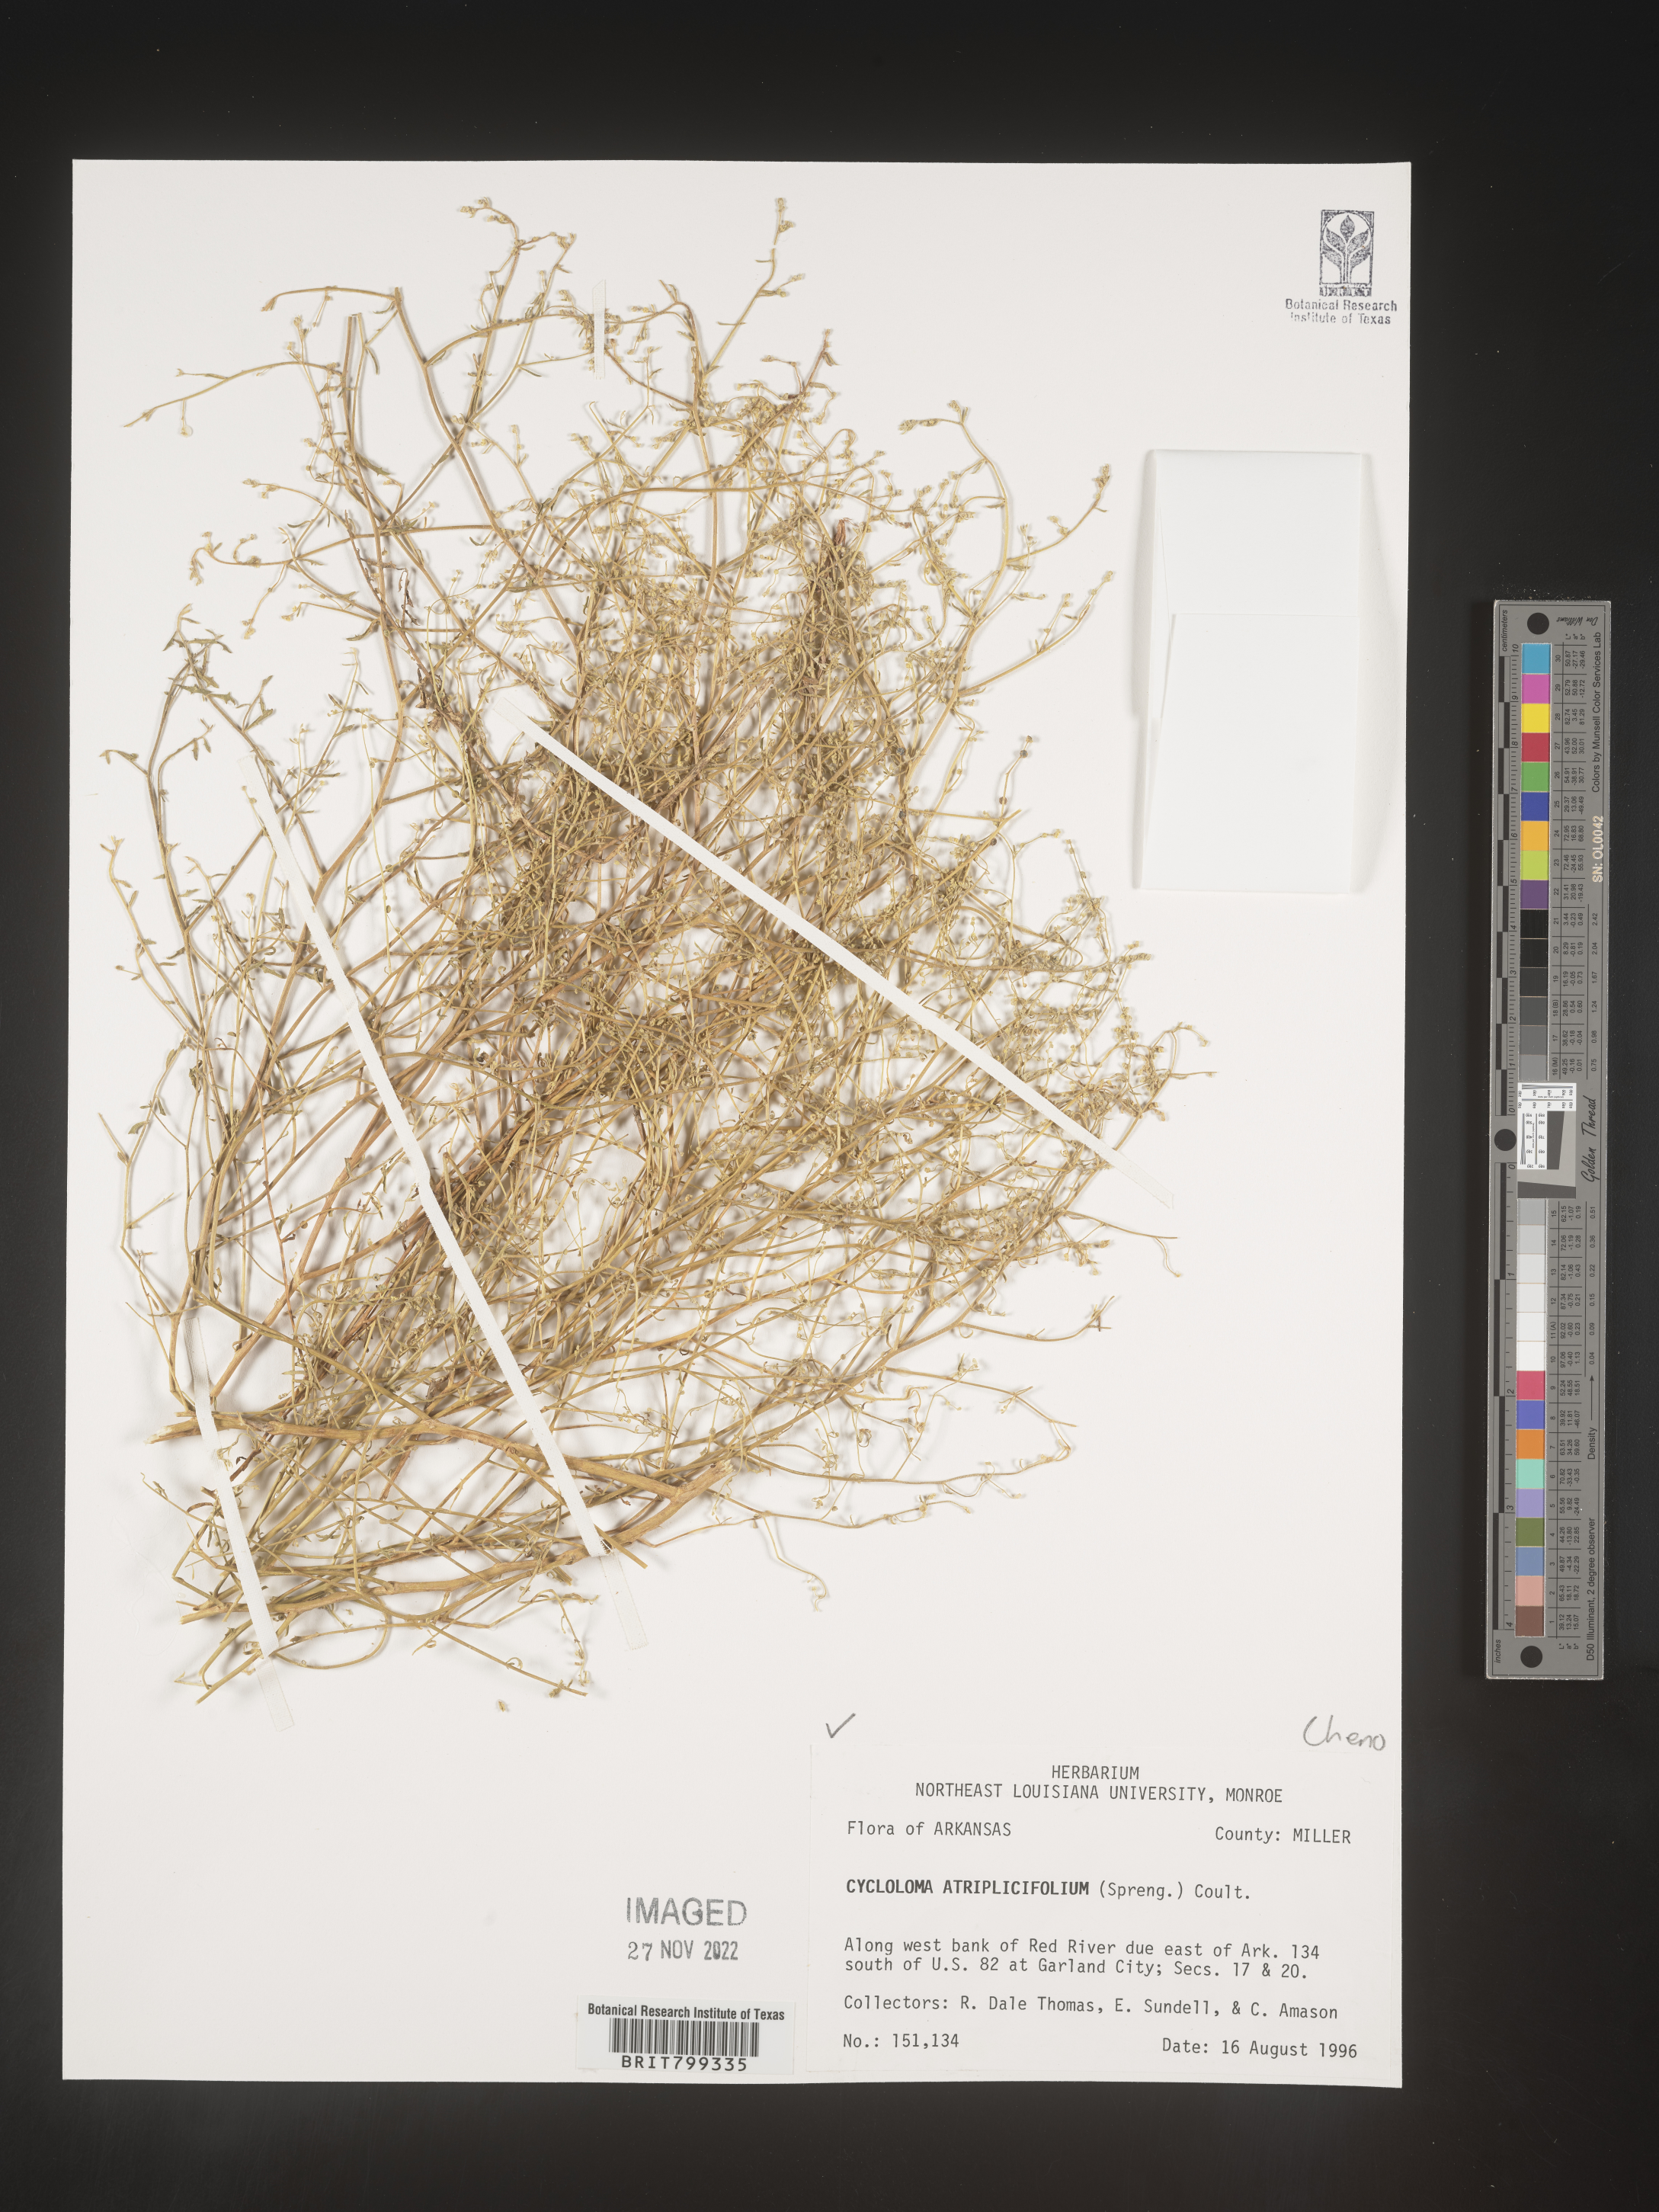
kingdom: Plantae
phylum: Tracheophyta
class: Magnoliopsida
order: Caryophyllales
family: Amaranthaceae
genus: Dysphania
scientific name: Dysphania atriplicifolia
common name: Plains tumbleweed
